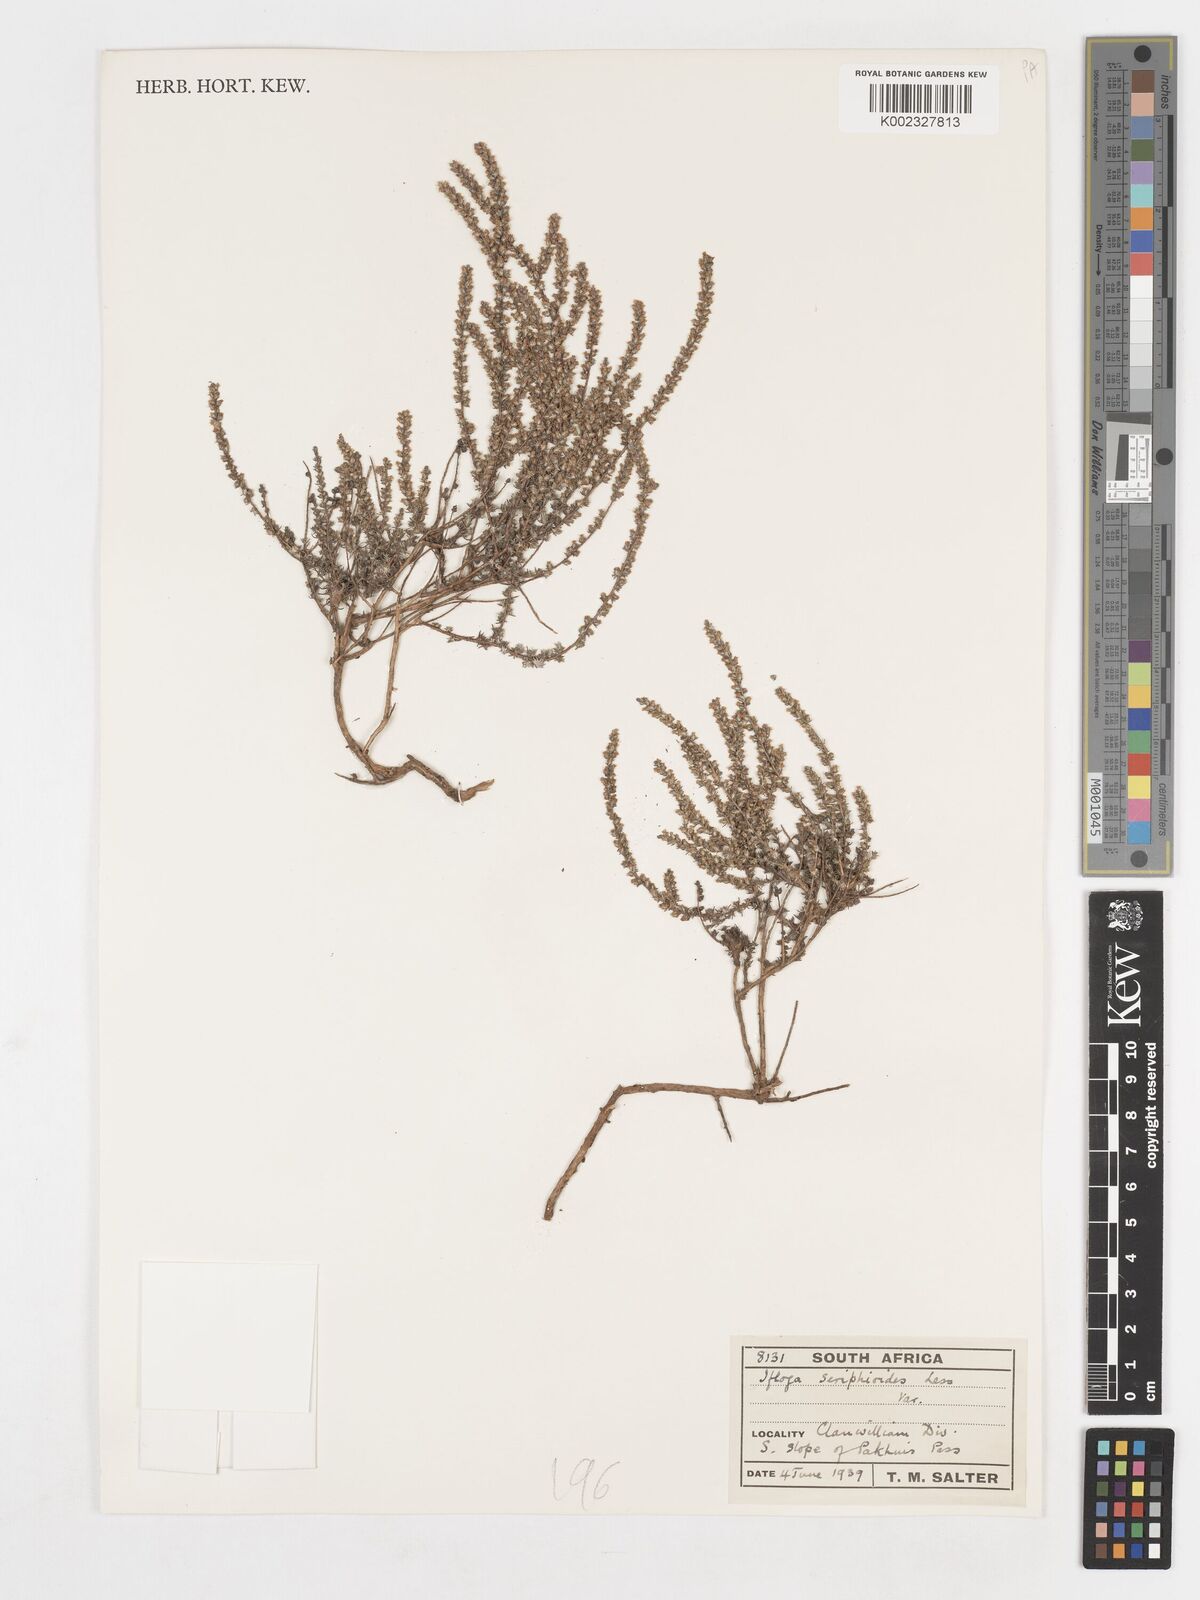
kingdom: Plantae
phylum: Tracheophyta
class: Magnoliopsida
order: Asterales
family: Asteraceae
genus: Ifloga
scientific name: Ifloga ambigua
